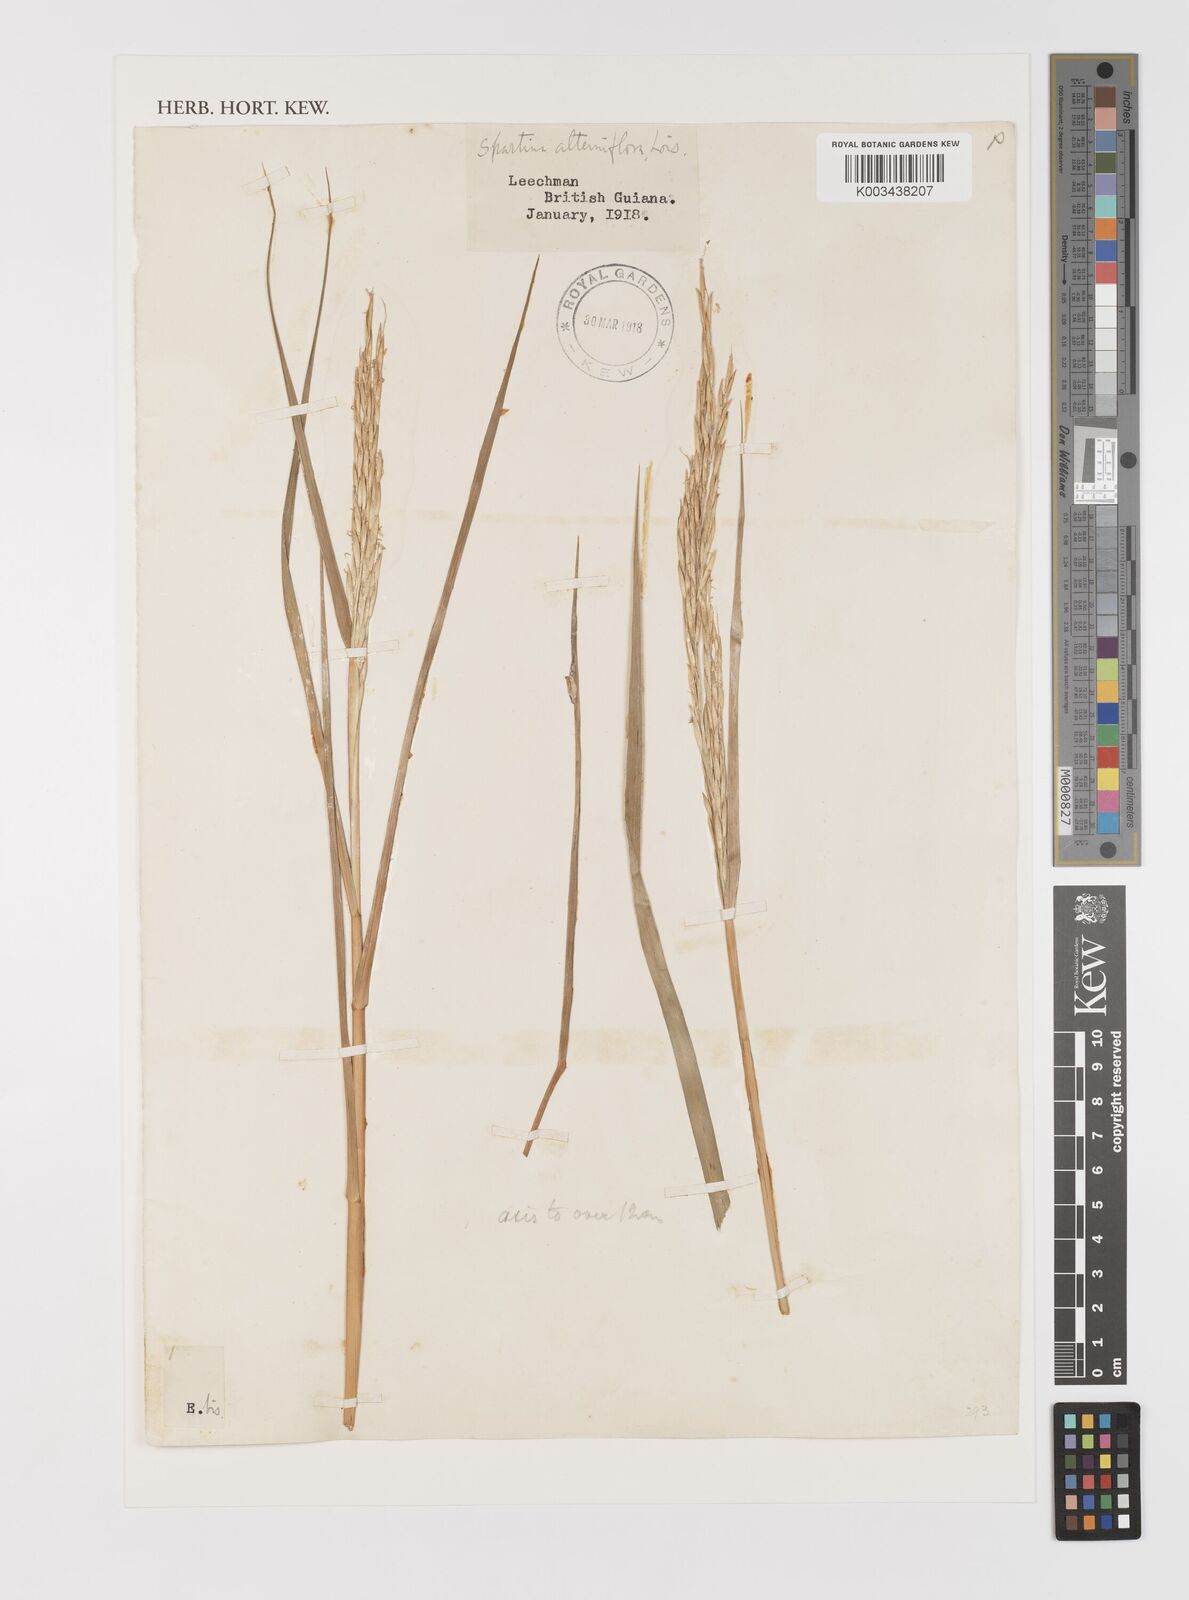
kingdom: Plantae
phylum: Tracheophyta
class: Liliopsida
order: Poales
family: Poaceae
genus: Sporobolus
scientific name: Sporobolus alterniflorus
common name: Atlantic cordgrass
